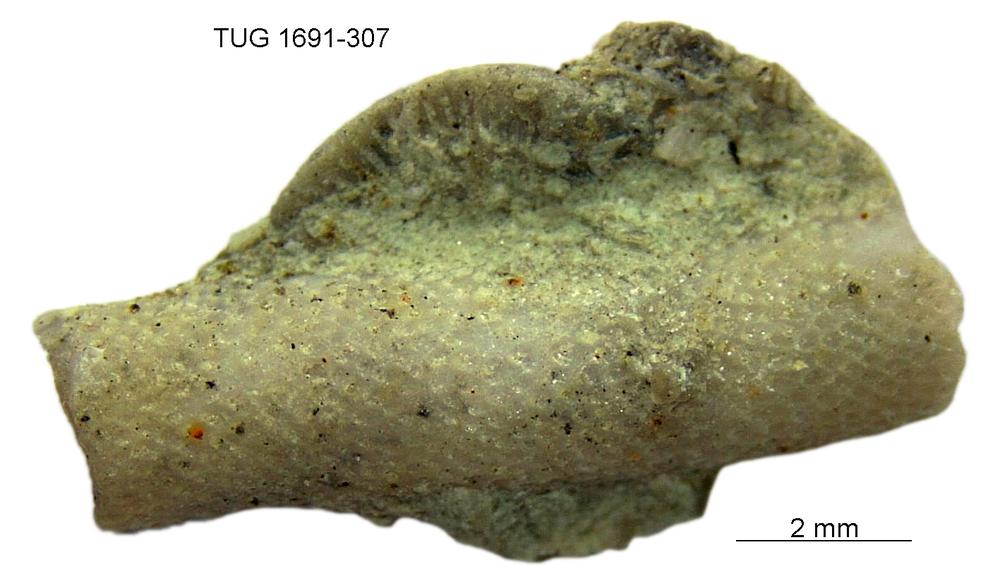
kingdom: Animalia
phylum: Bryozoa
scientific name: Bryozoa
